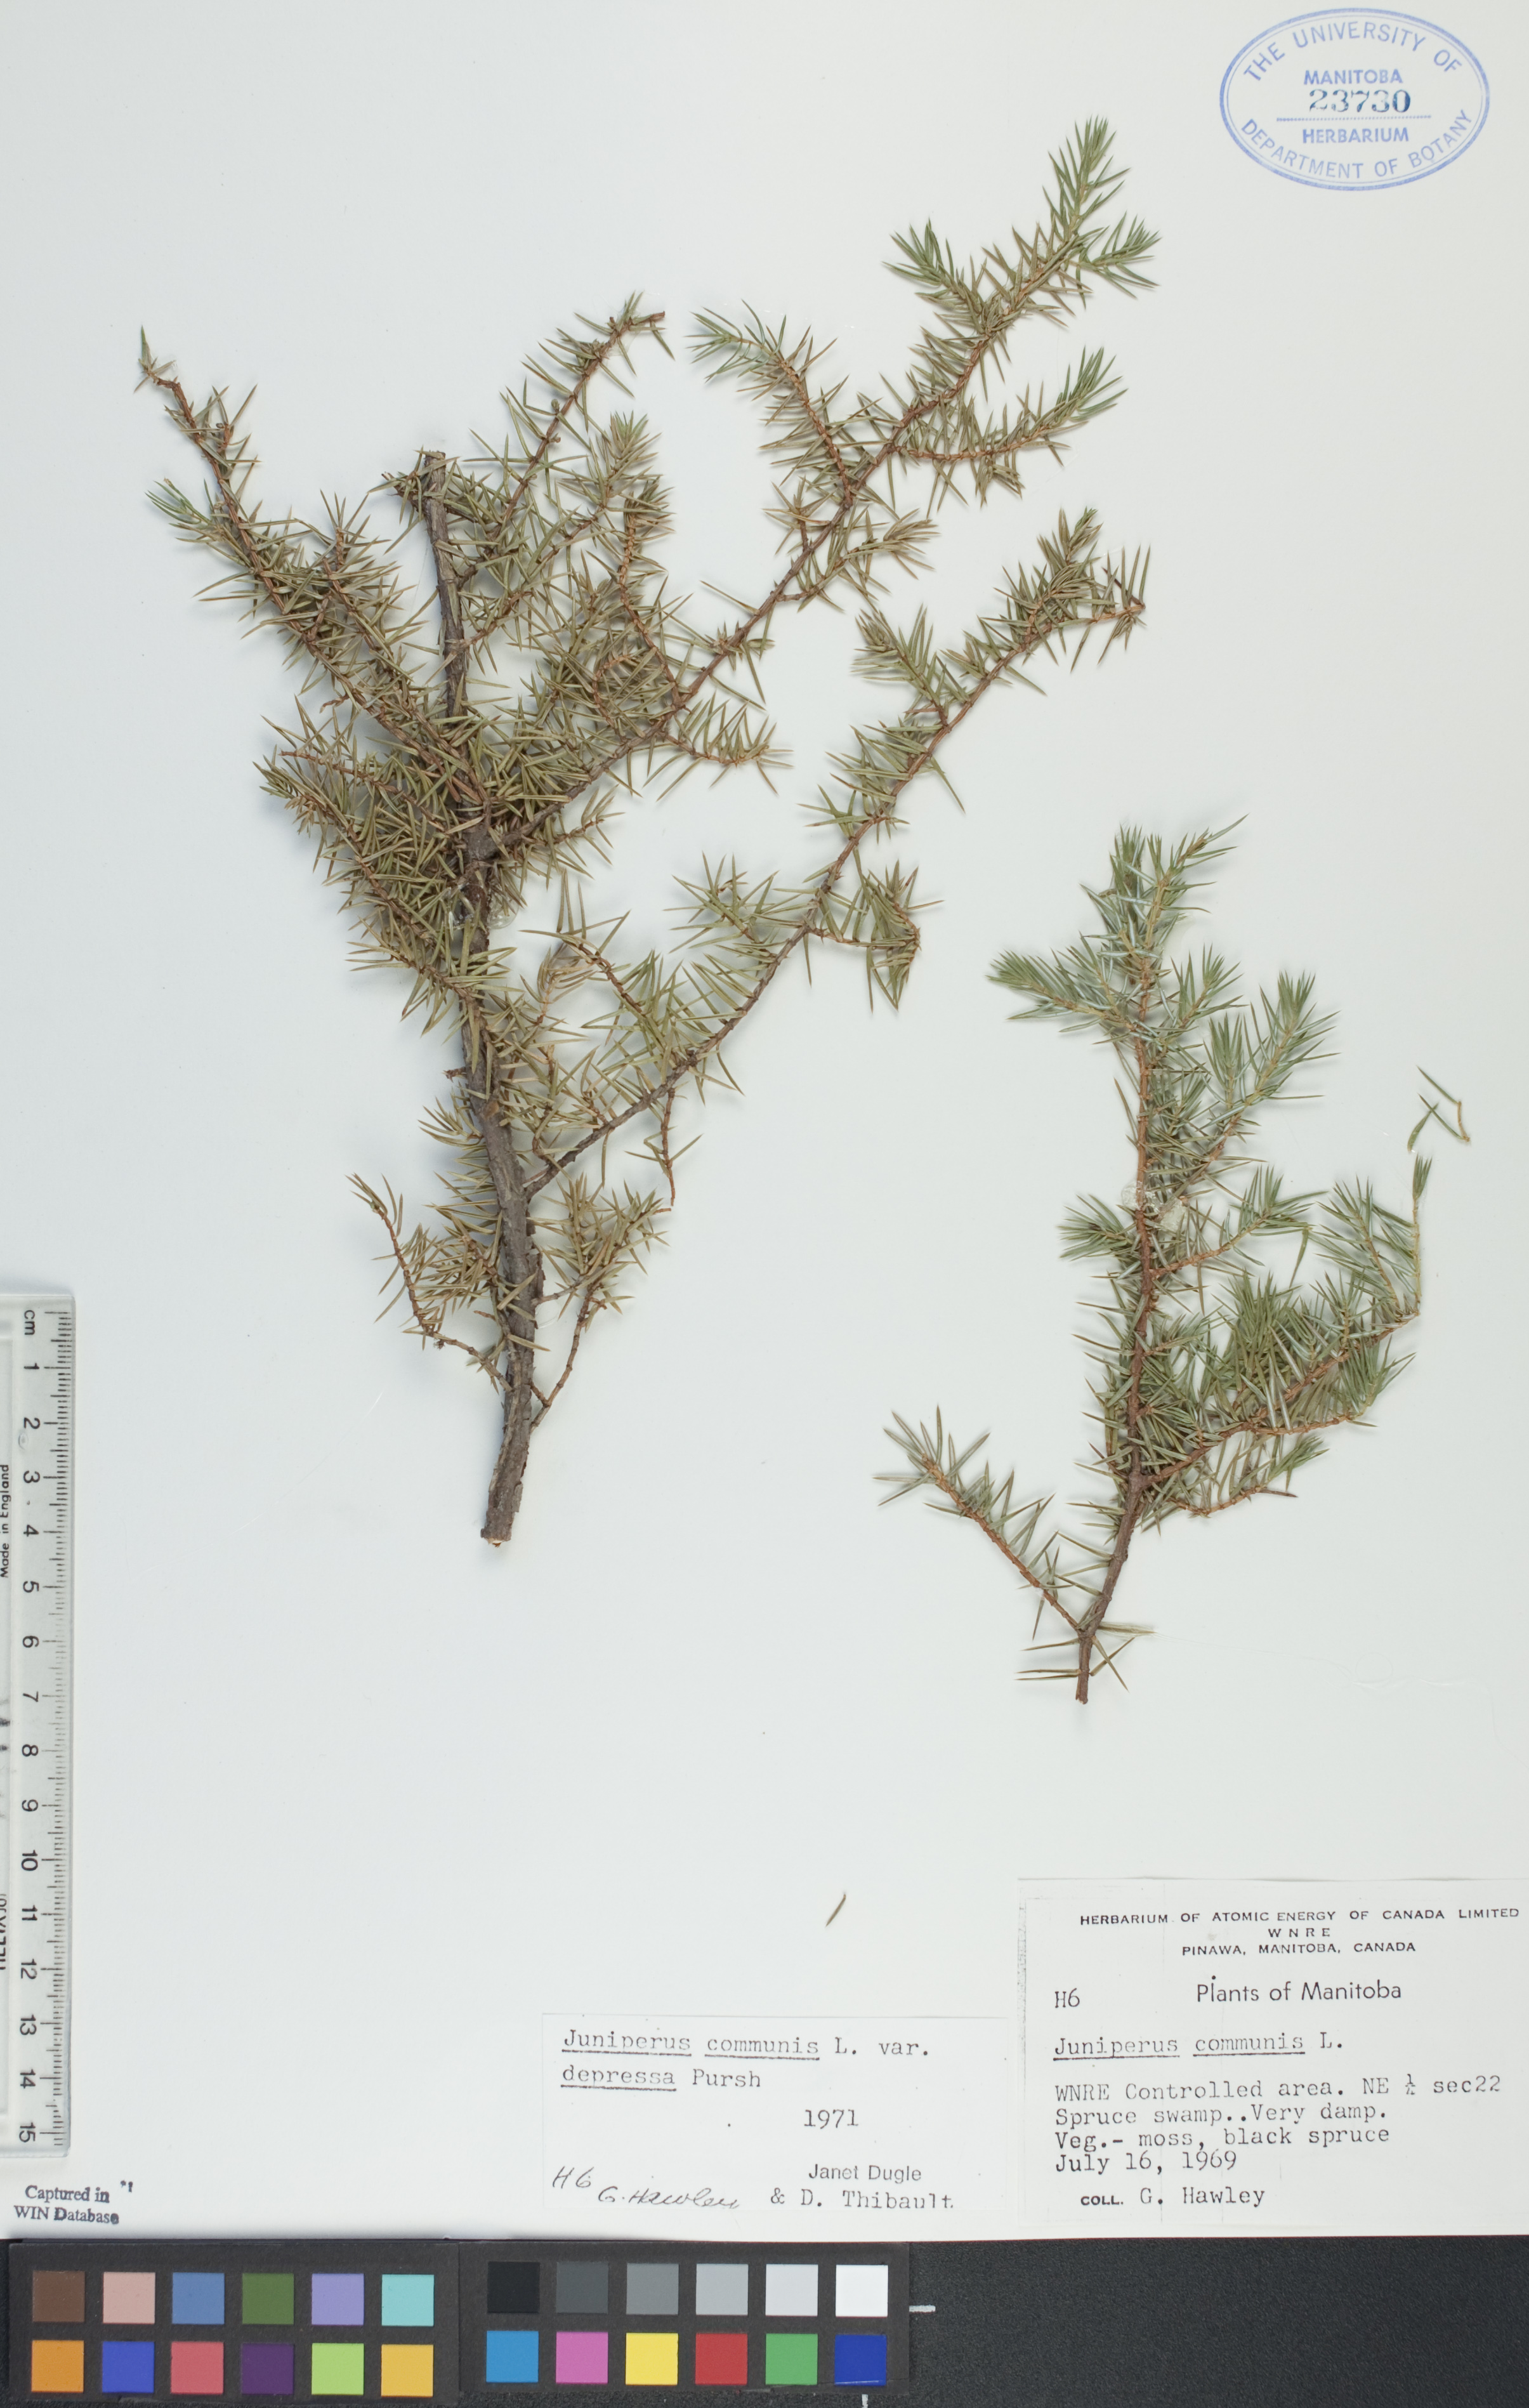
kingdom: Plantae
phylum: Tracheophyta
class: Pinopsida
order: Pinales
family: Cupressaceae
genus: Juniperus
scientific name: Juniperus communis
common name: Common juniper
